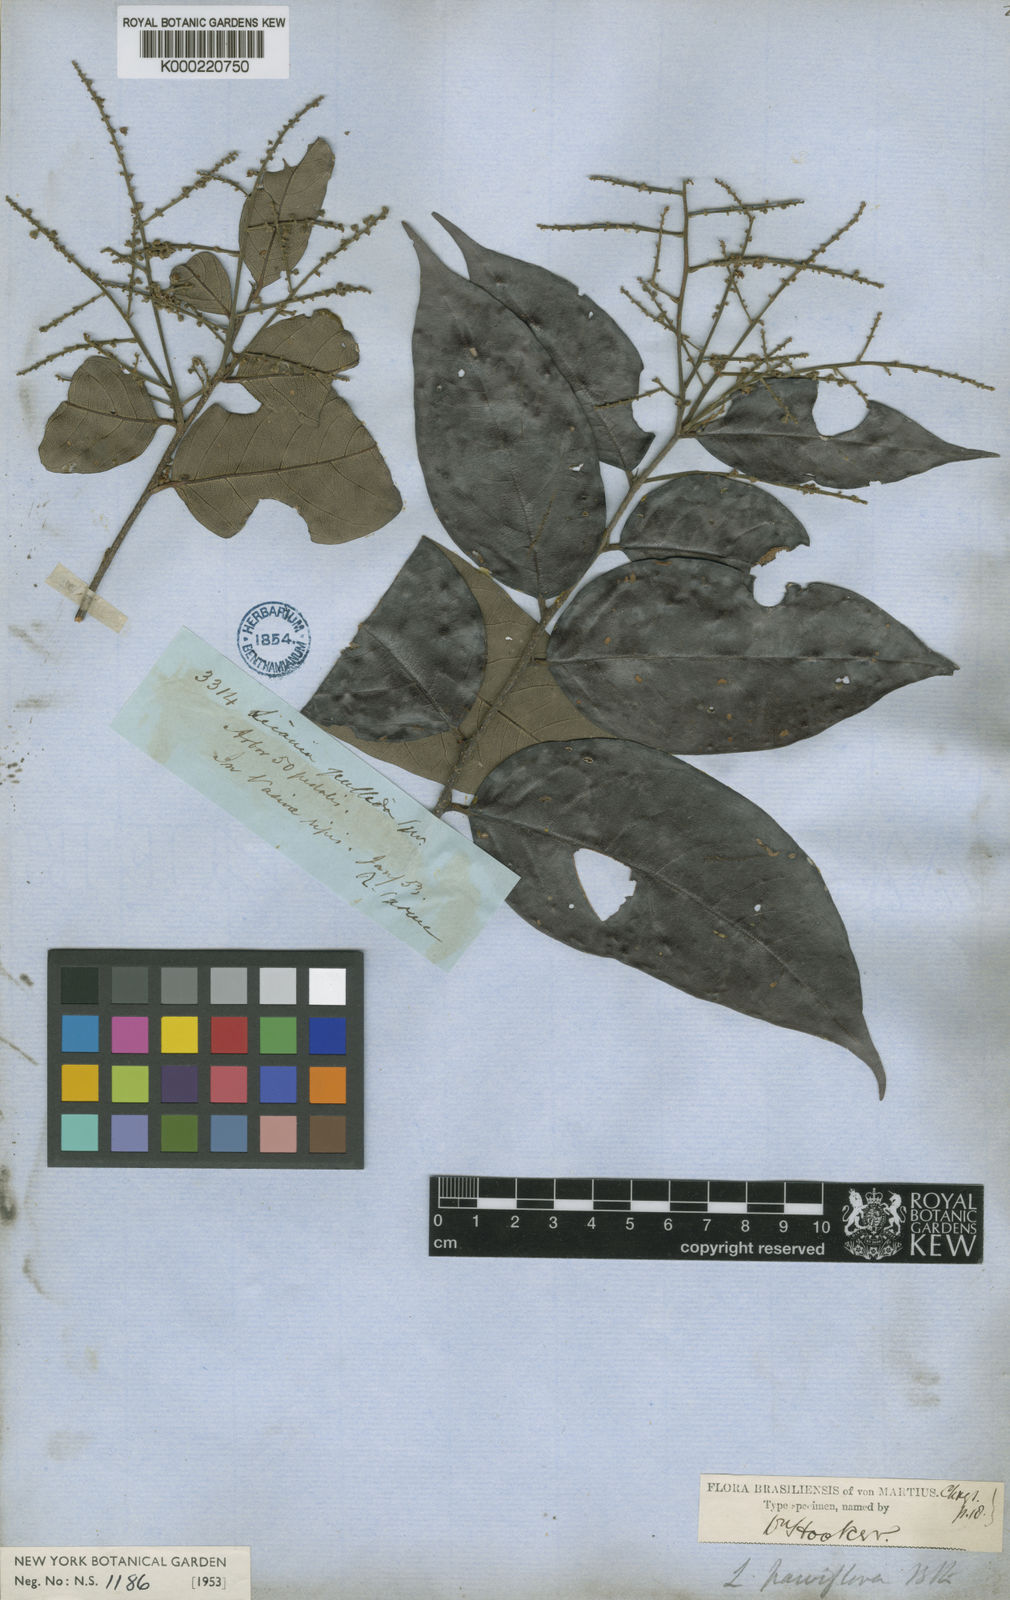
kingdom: Plantae
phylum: Tracheophyta
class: Magnoliopsida
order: Malpighiales
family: Chrysobalanaceae
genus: Leptobalanus
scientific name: Leptobalanus parviflorus
